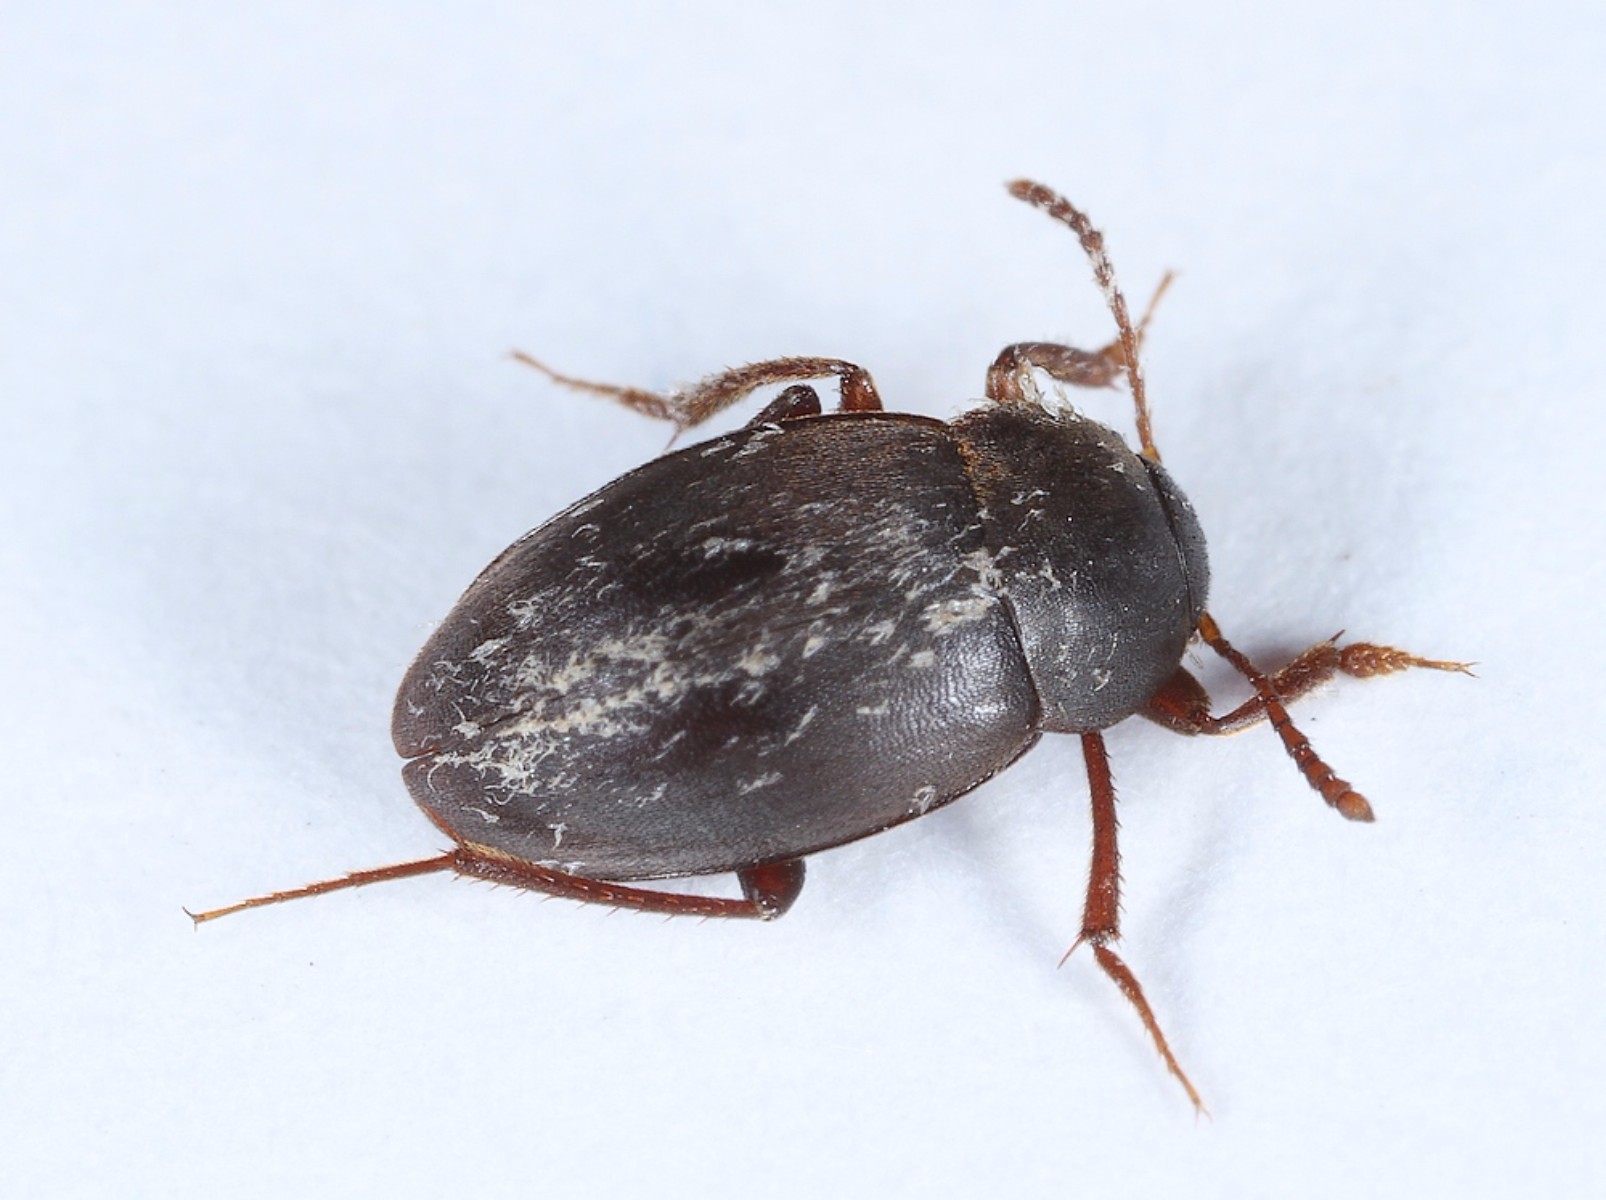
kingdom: Fungi
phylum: Ascomycota
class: Laboulbeniomycetes
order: Laboulbeniales
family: Laboulbeniaceae
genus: Asaphomyces
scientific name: Asaphomyces cholevae
